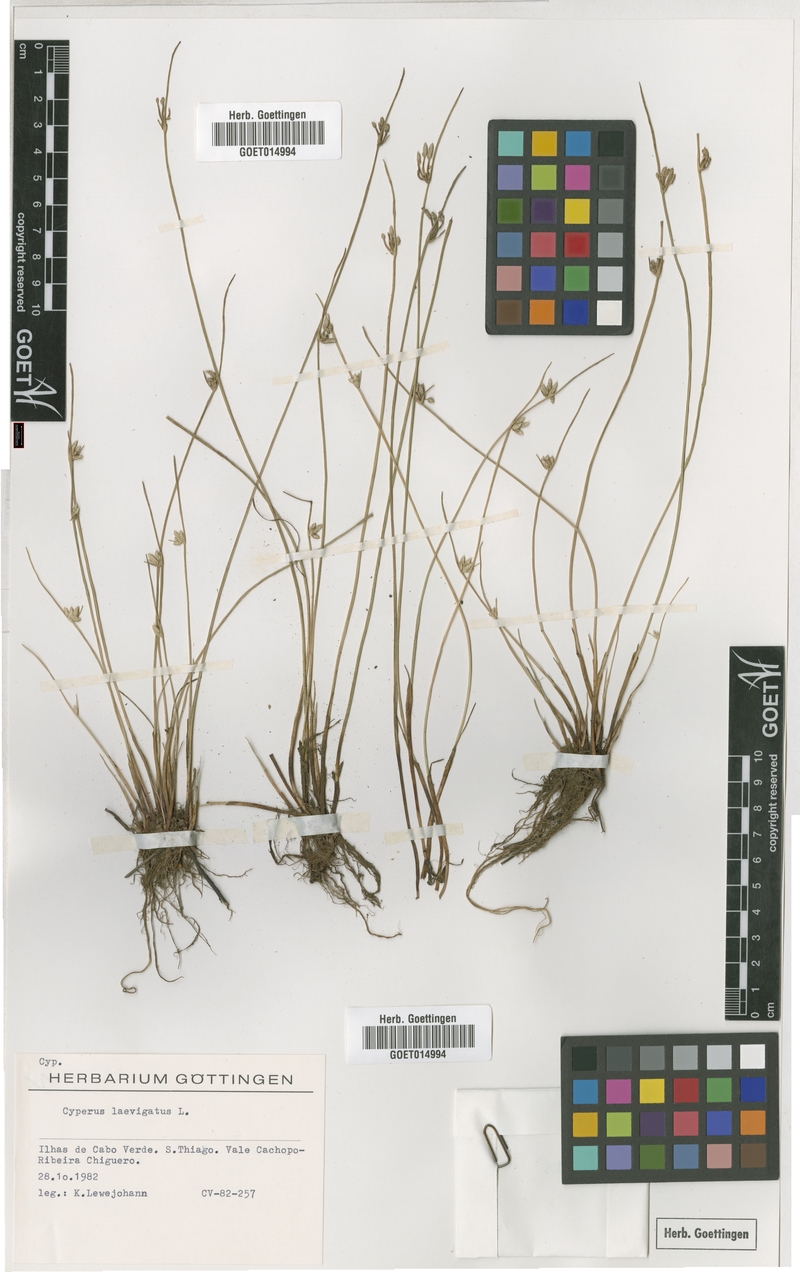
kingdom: Plantae
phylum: Tracheophyta
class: Liliopsida
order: Poales
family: Cyperaceae
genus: Cyperus
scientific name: Cyperus laevigatus
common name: Smooth flat sedge
